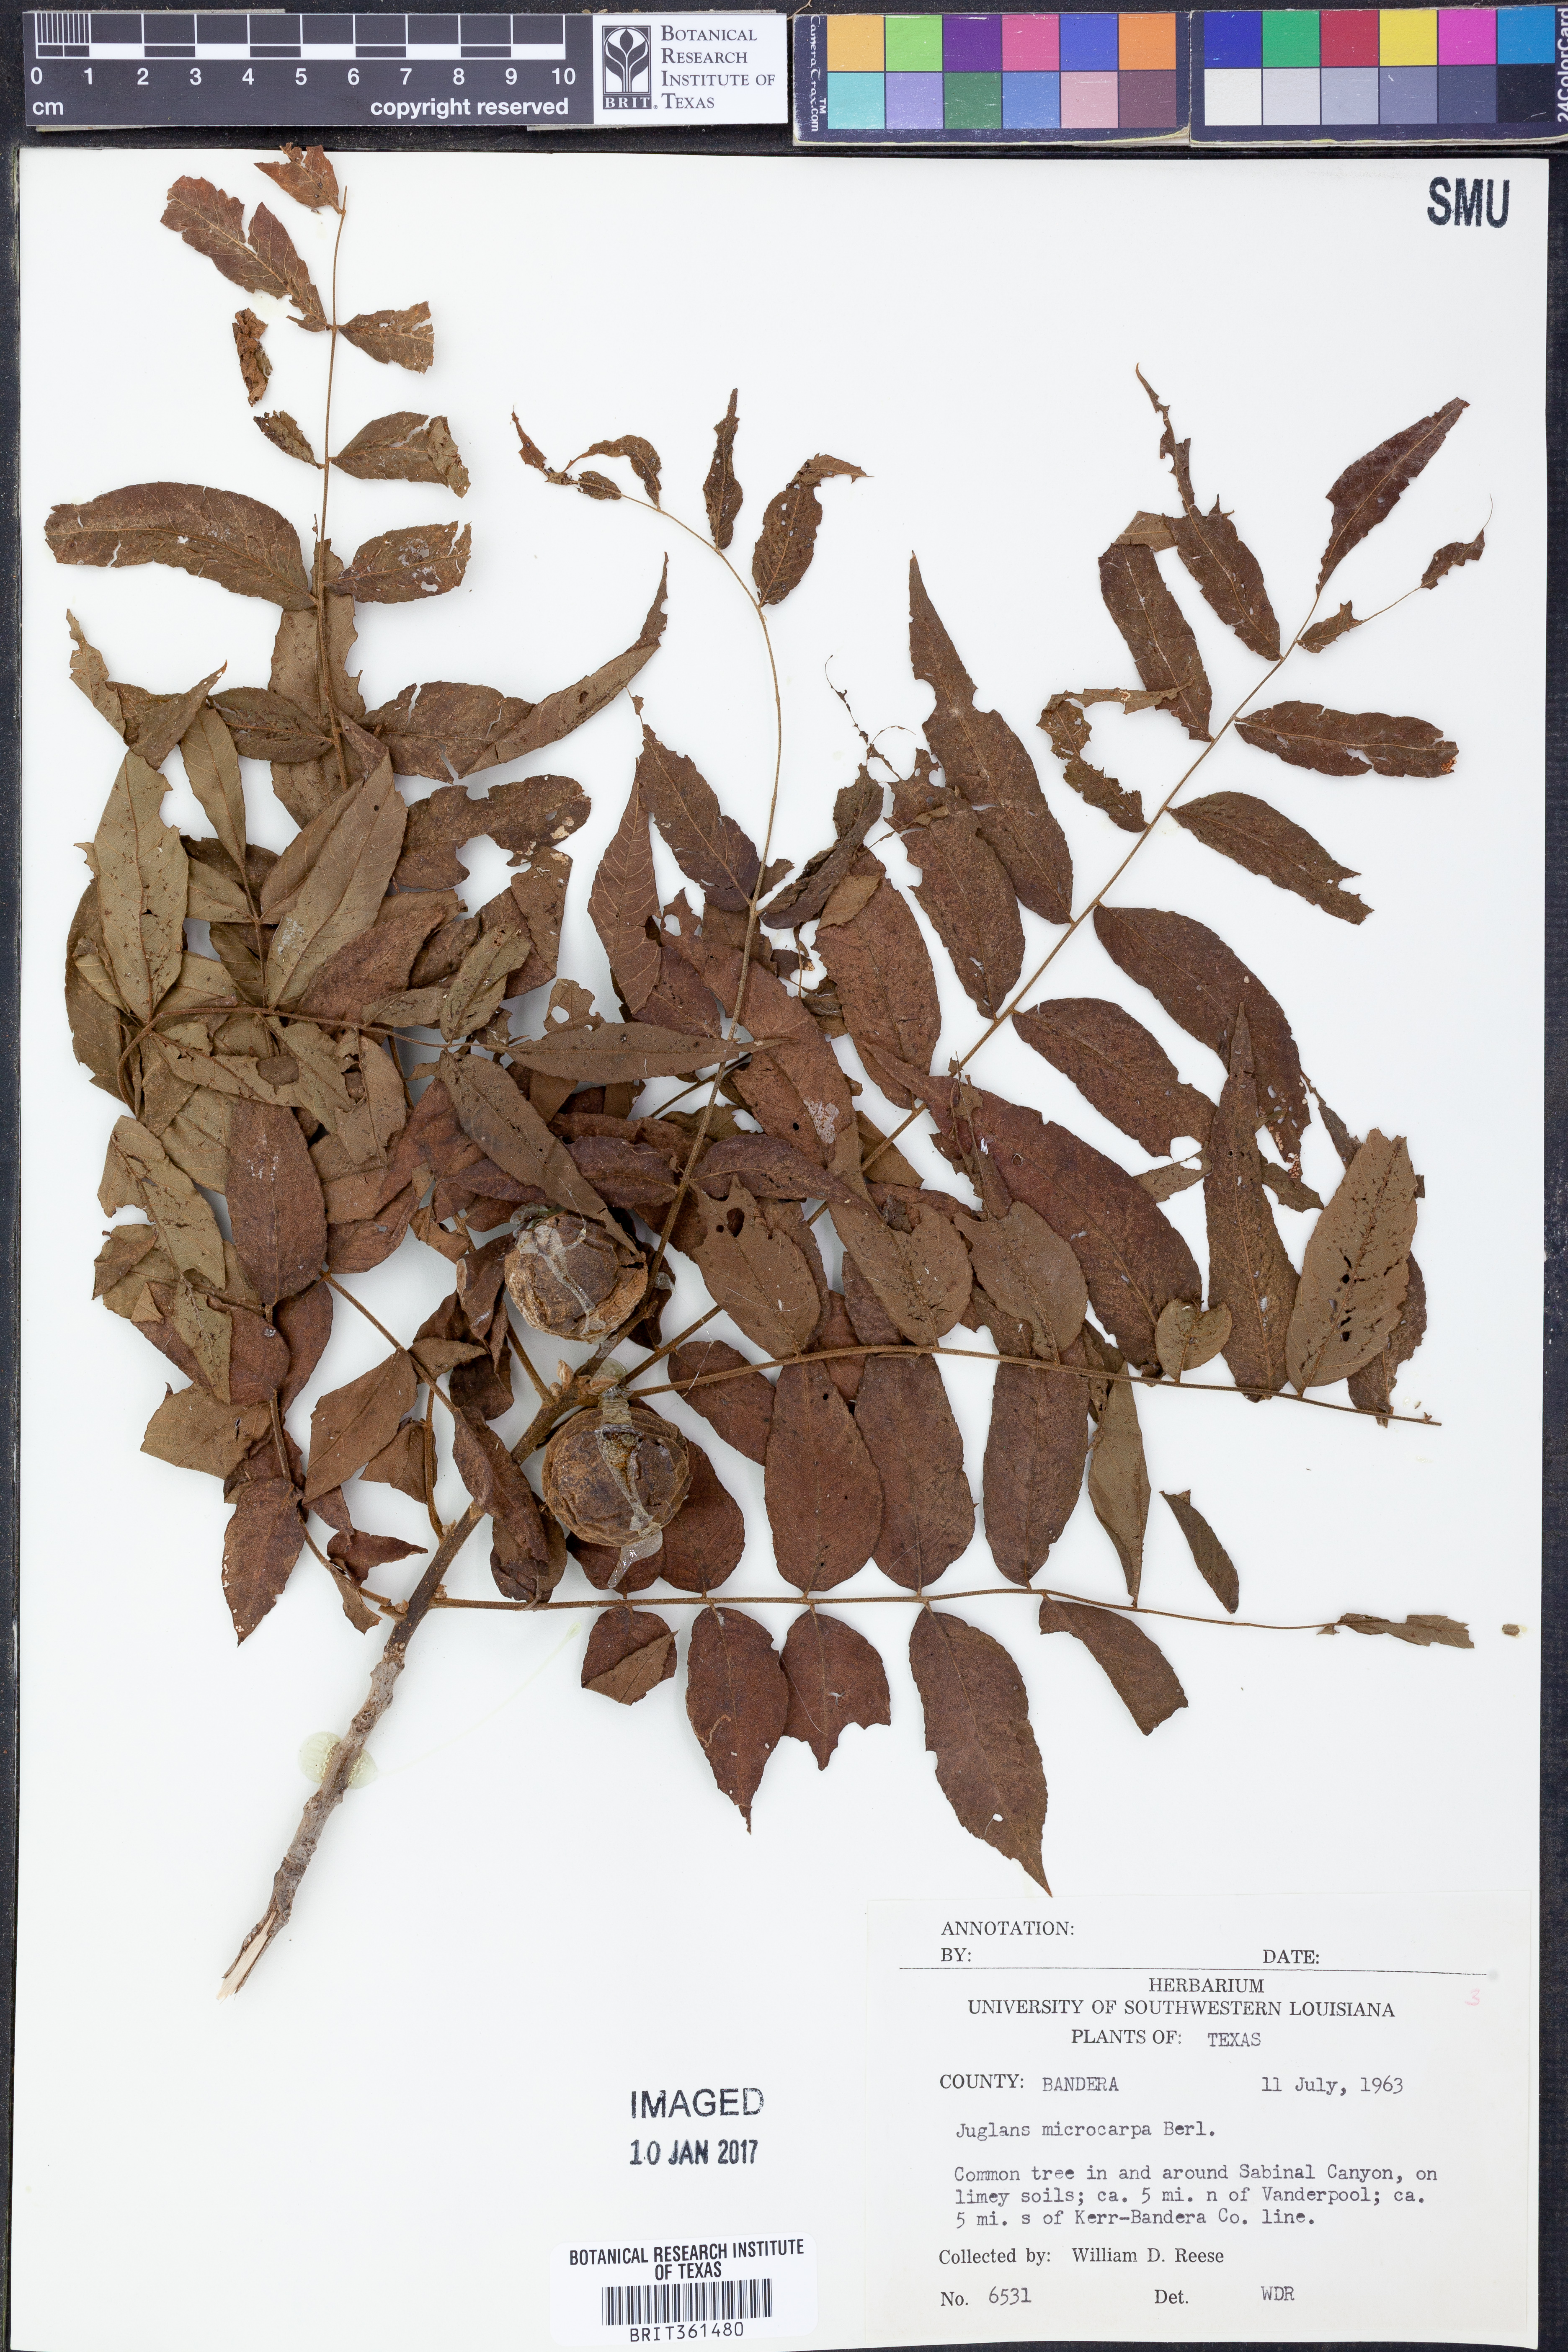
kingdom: Plantae
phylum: Tracheophyta
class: Magnoliopsida
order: Fagales
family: Juglandaceae
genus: Juglans
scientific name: Juglans microcarpa
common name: Texas walnut
